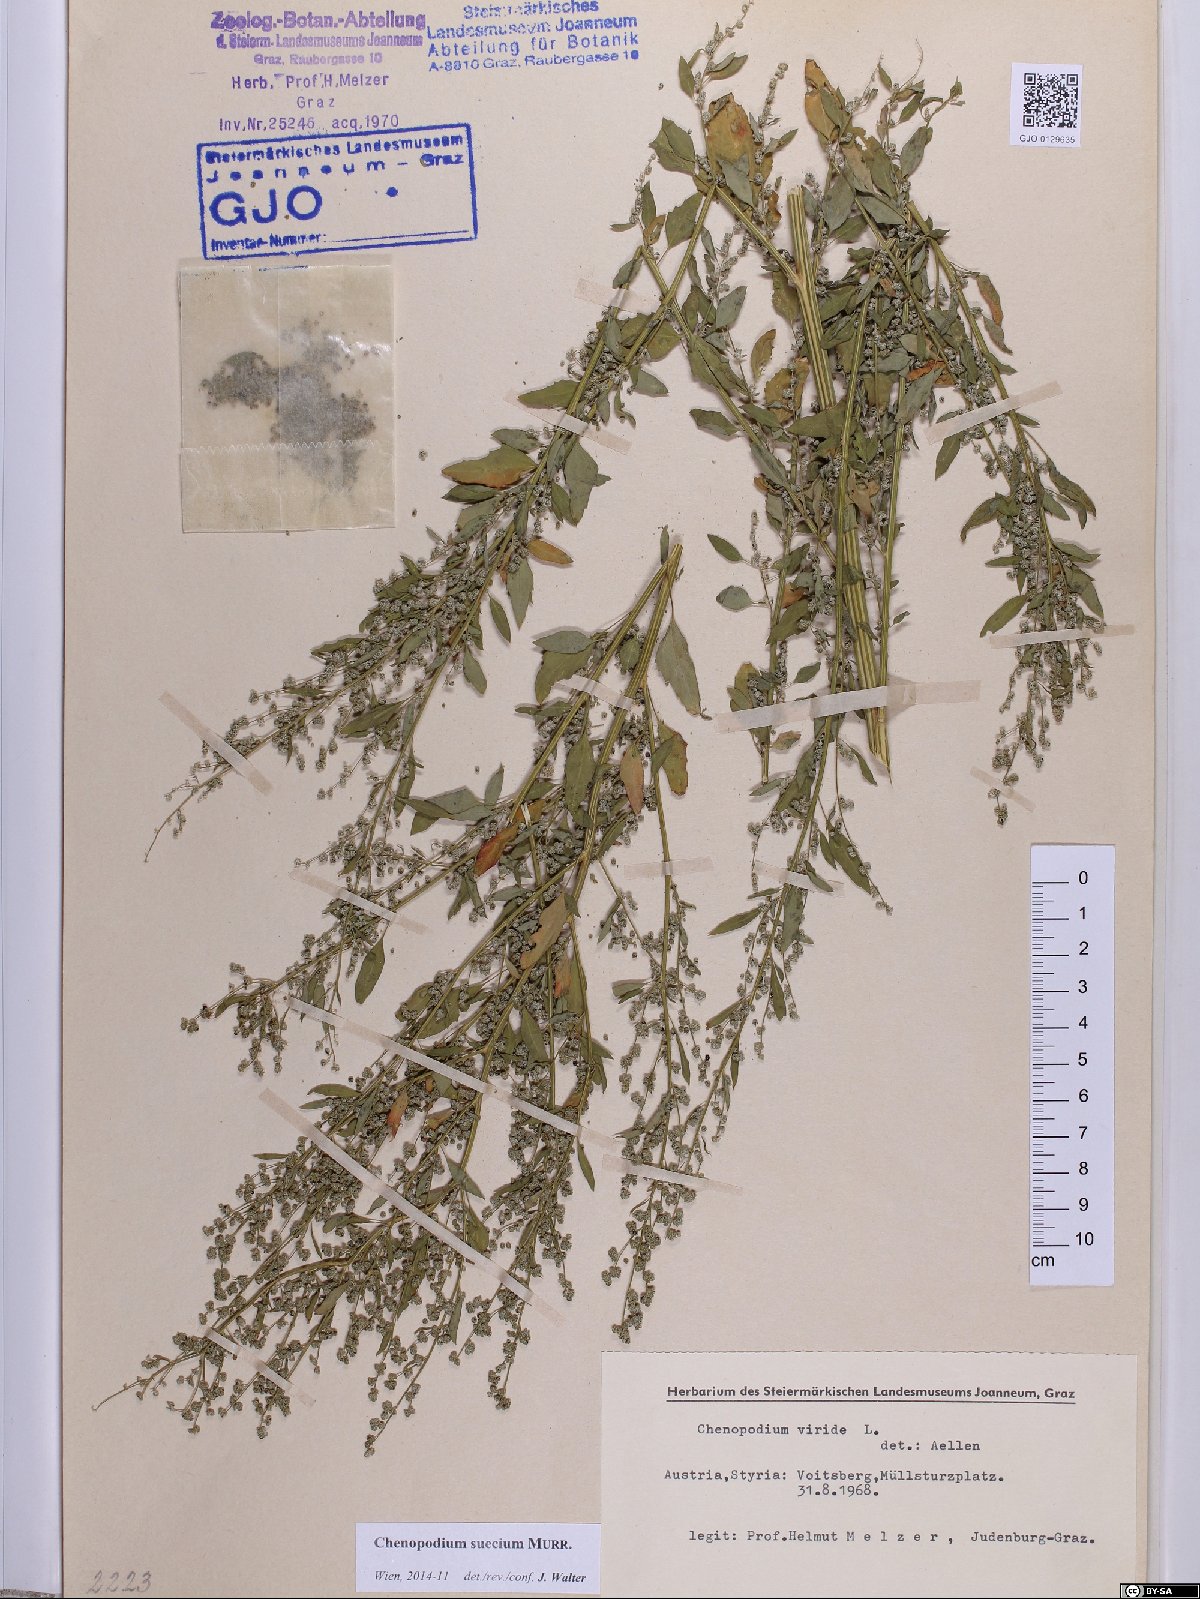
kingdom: Plantae
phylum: Tracheophyta
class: Magnoliopsida
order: Caryophyllales
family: Amaranthaceae
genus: Chenopodium
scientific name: Chenopodium suecicum
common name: Swedish goosefoot
